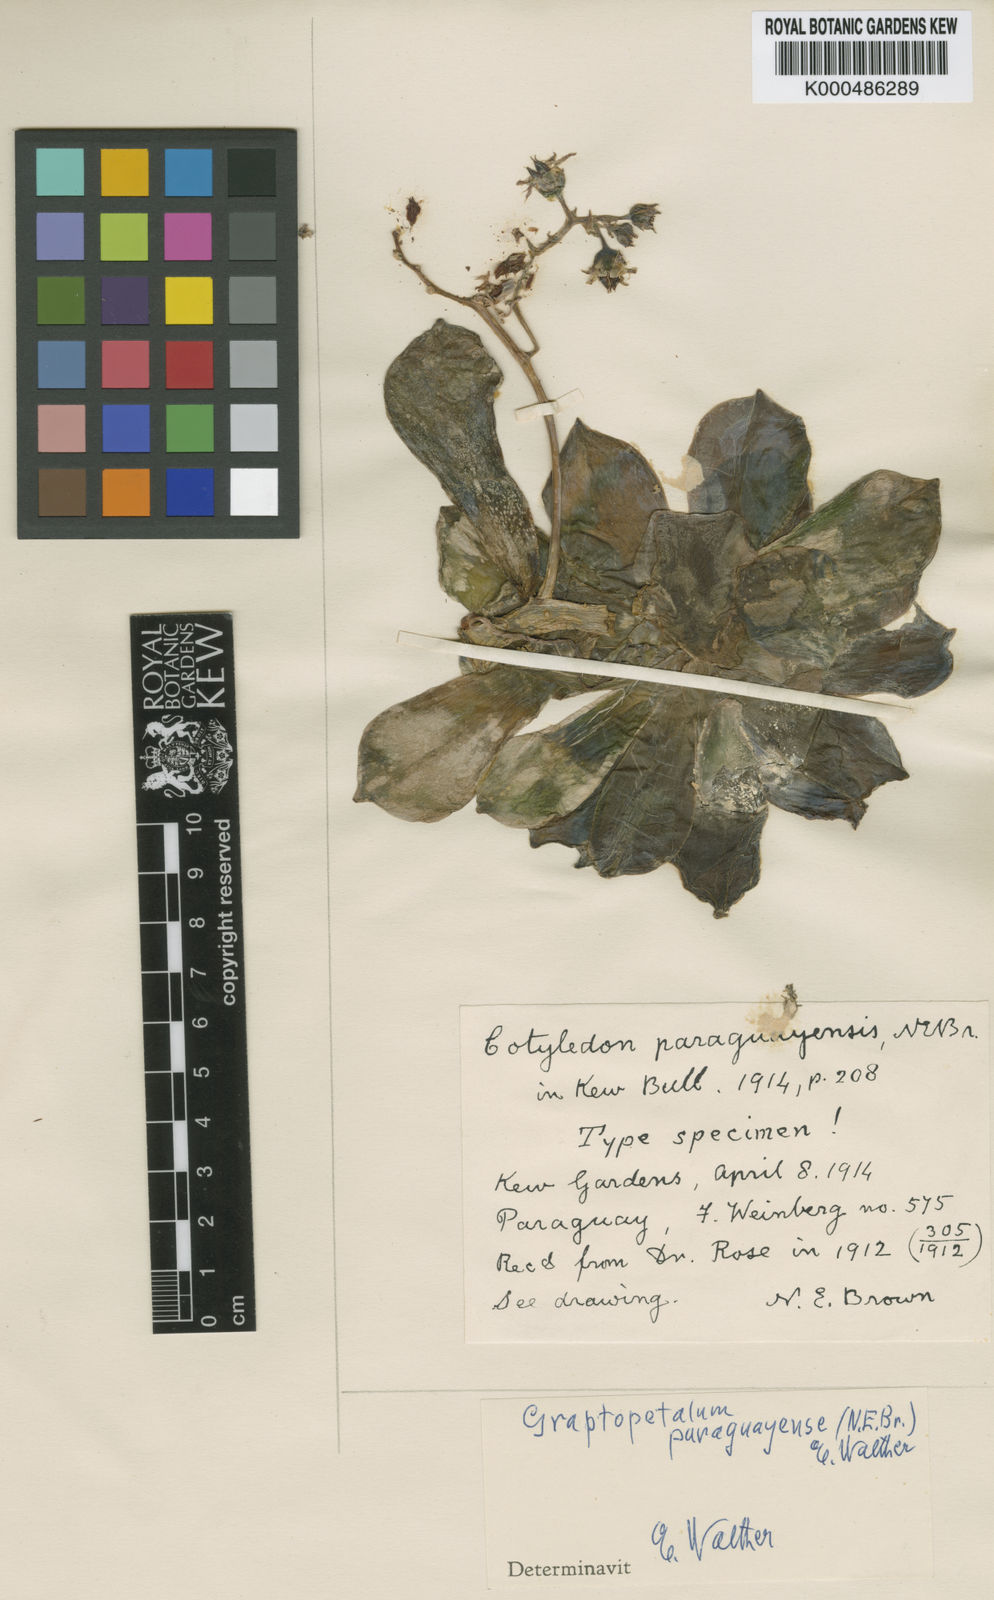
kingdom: Plantae
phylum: Tracheophyta
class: Magnoliopsida
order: Saxifragales
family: Crassulaceae
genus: Graptopetalum
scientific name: Graptopetalum paraguayense
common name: Mother-of-pearl-plant
